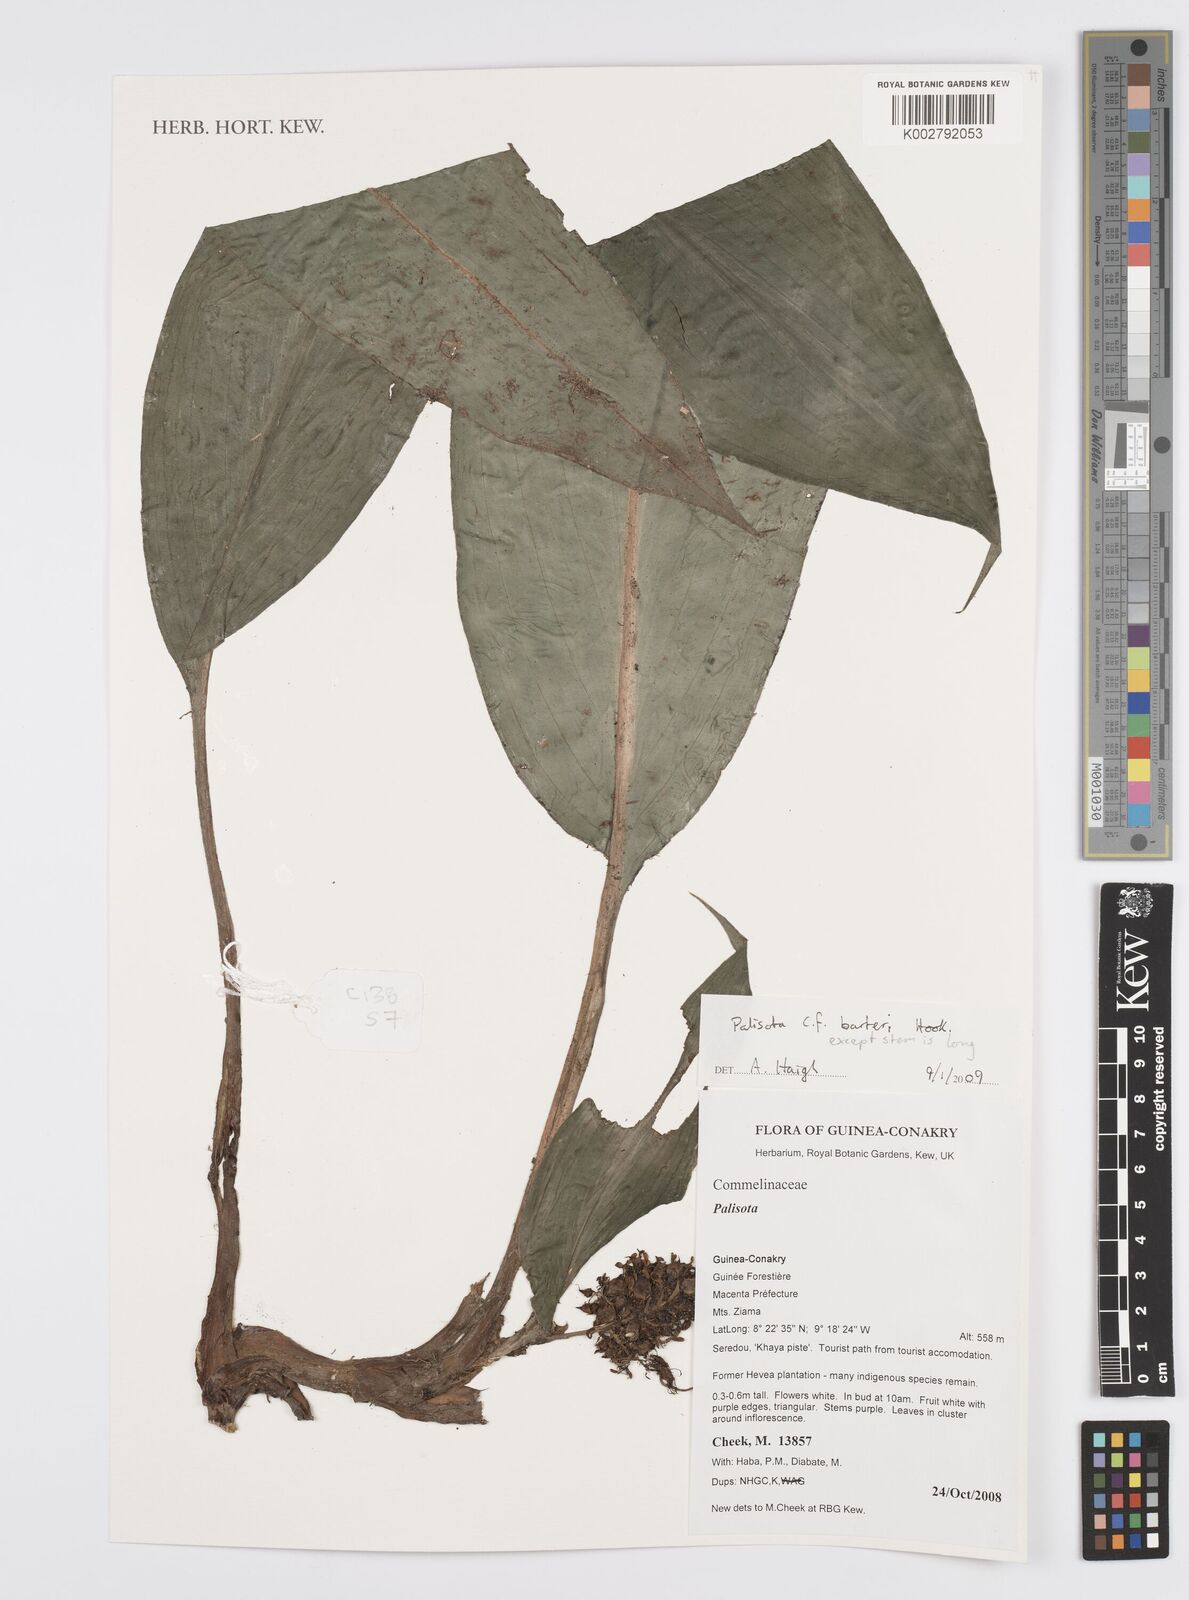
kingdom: Plantae
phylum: Tracheophyta
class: Liliopsida
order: Commelinales
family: Commelinaceae
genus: Palisota
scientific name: Palisota barteri
